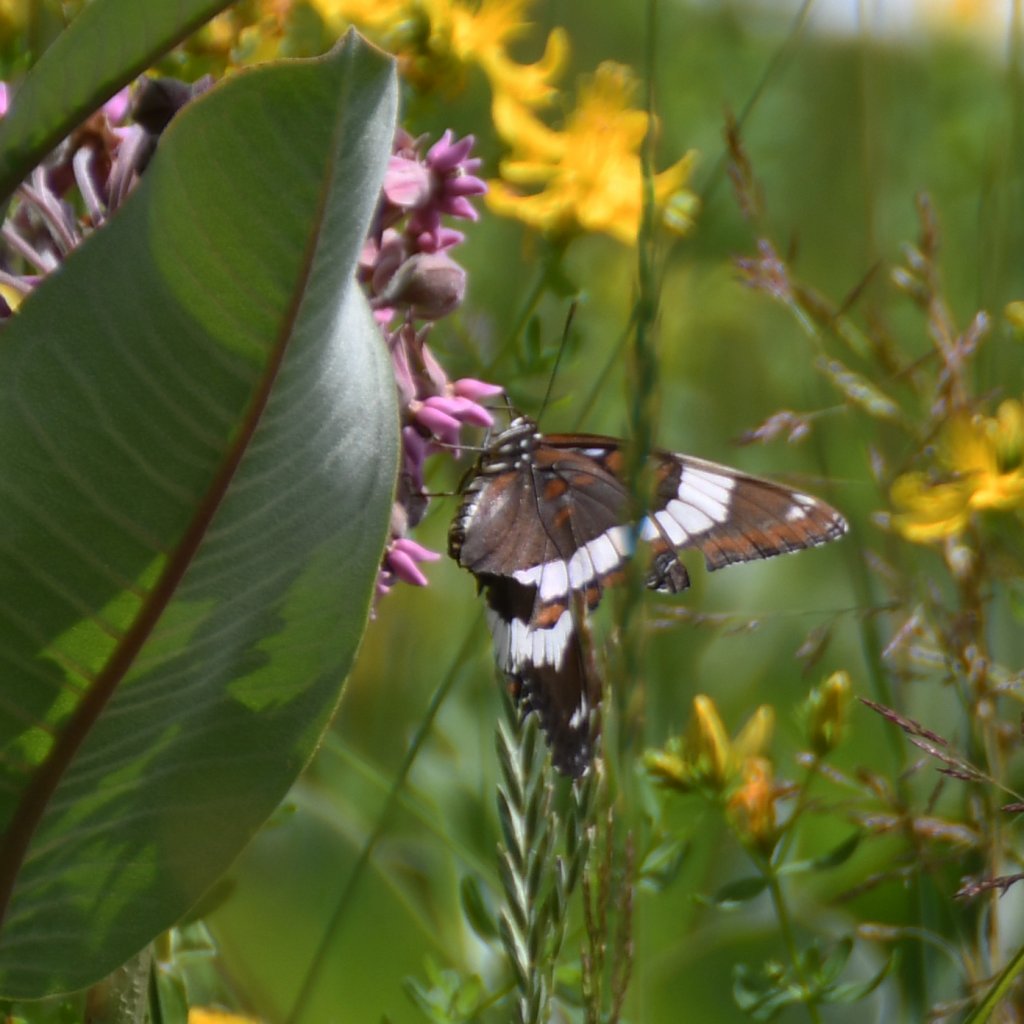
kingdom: Animalia
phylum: Arthropoda
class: Insecta
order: Lepidoptera
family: Nymphalidae
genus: Limenitis
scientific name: Limenitis arthemis
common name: Red-spotted Admiral
